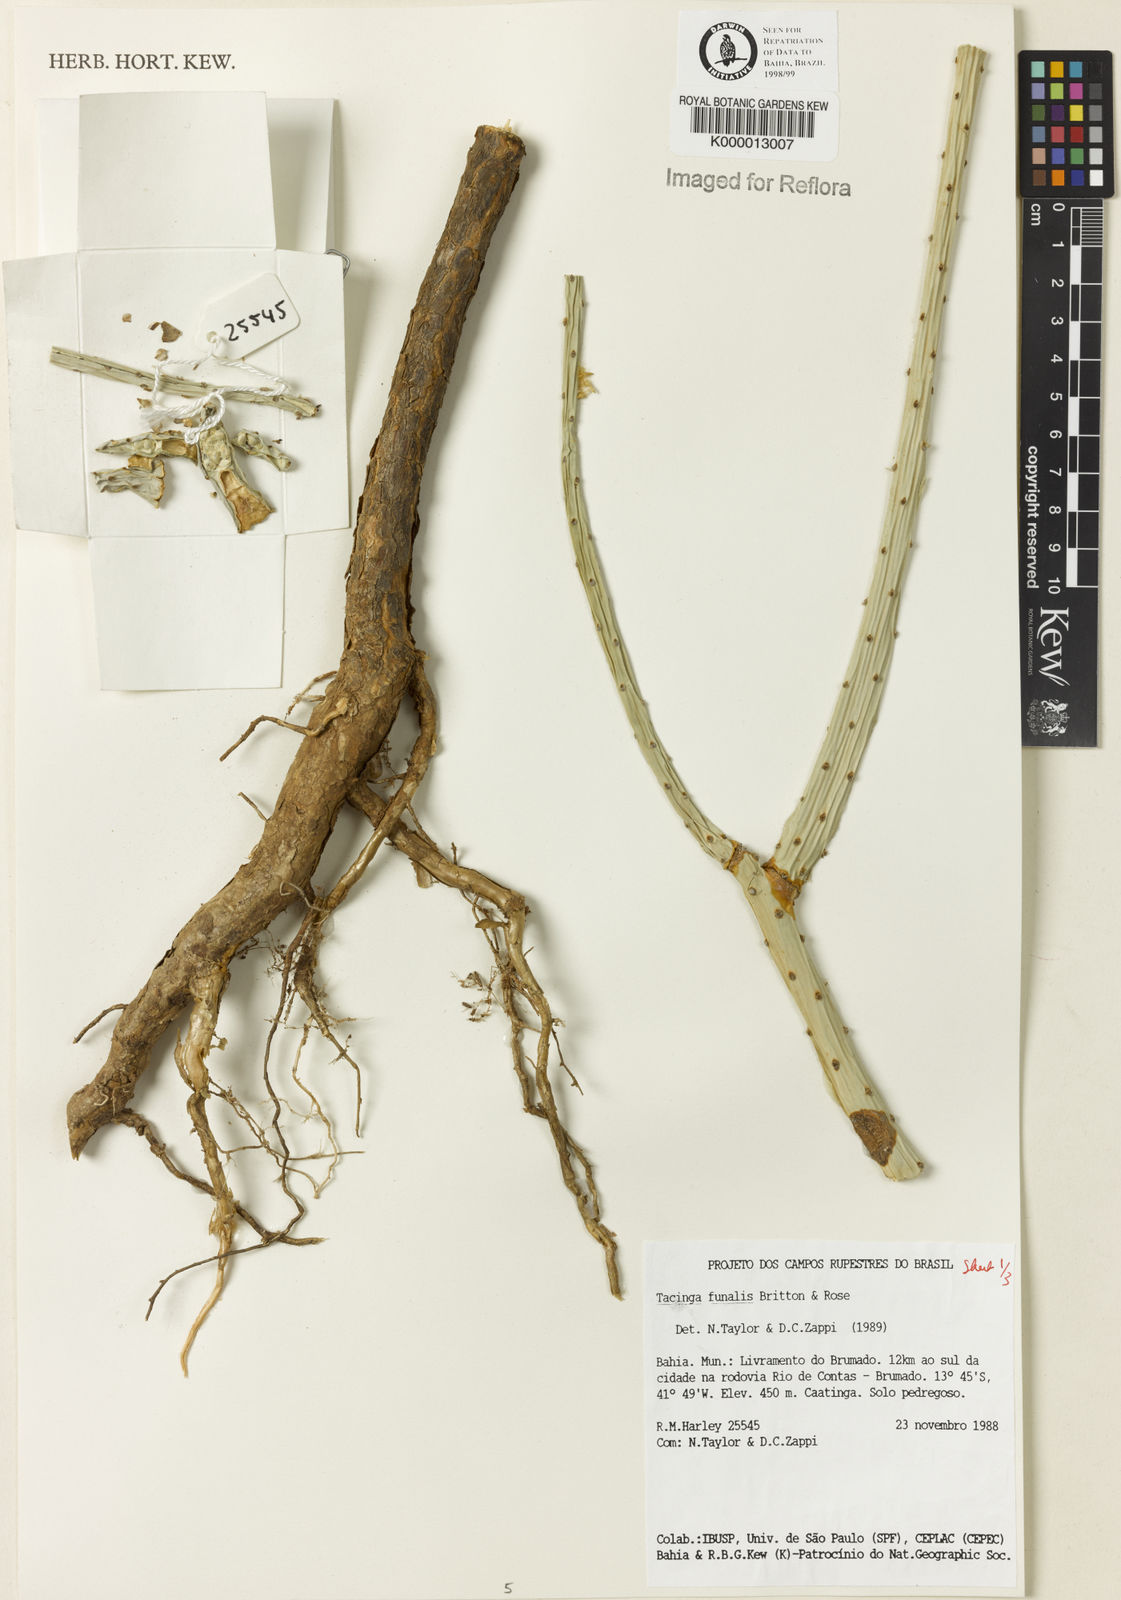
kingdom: Plantae
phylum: Tracheophyta
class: Magnoliopsida
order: Caryophyllales
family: Cactaceae
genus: Tacinga
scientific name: Tacinga funalis
